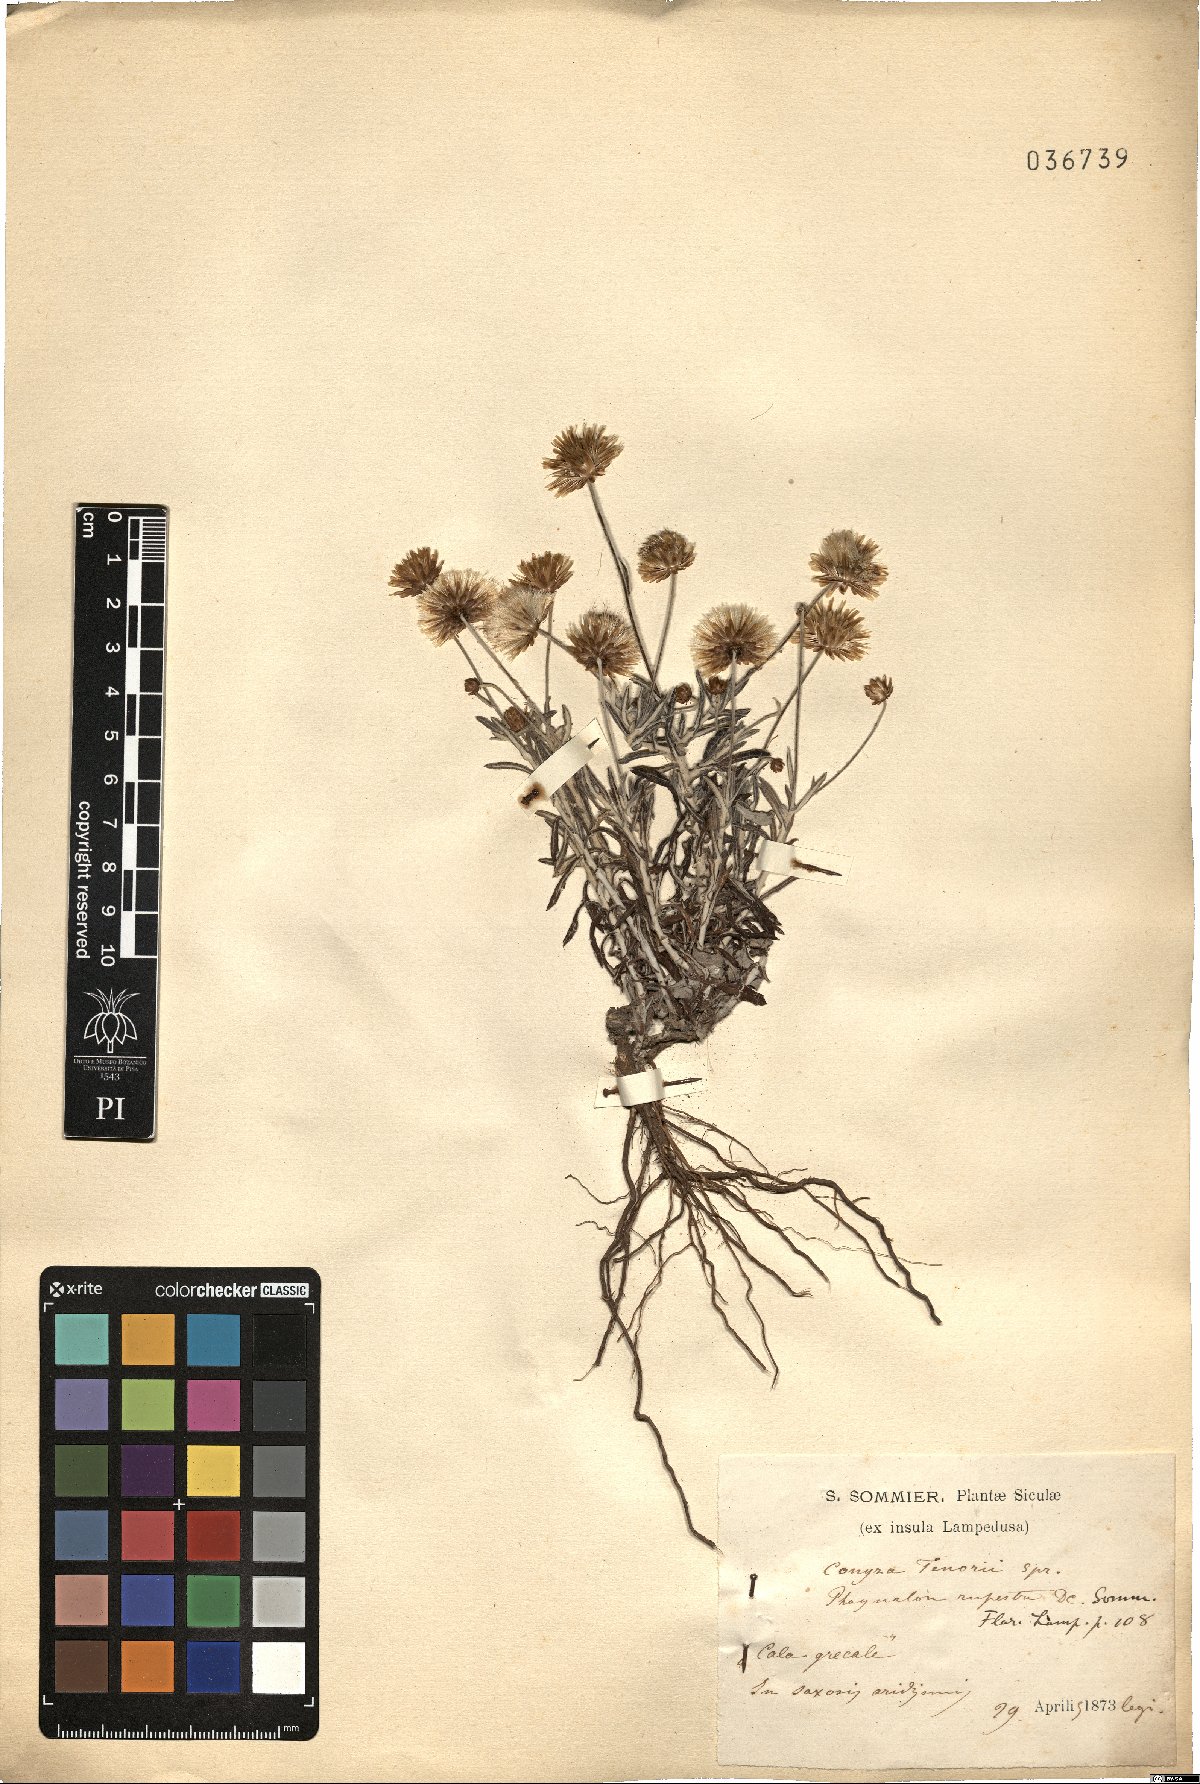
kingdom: Plantae
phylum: Tracheophyta
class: Magnoliopsida
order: Asterales
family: Asteraceae
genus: Phagnalon
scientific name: Phagnalon rupestre
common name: Rock phagnalon
